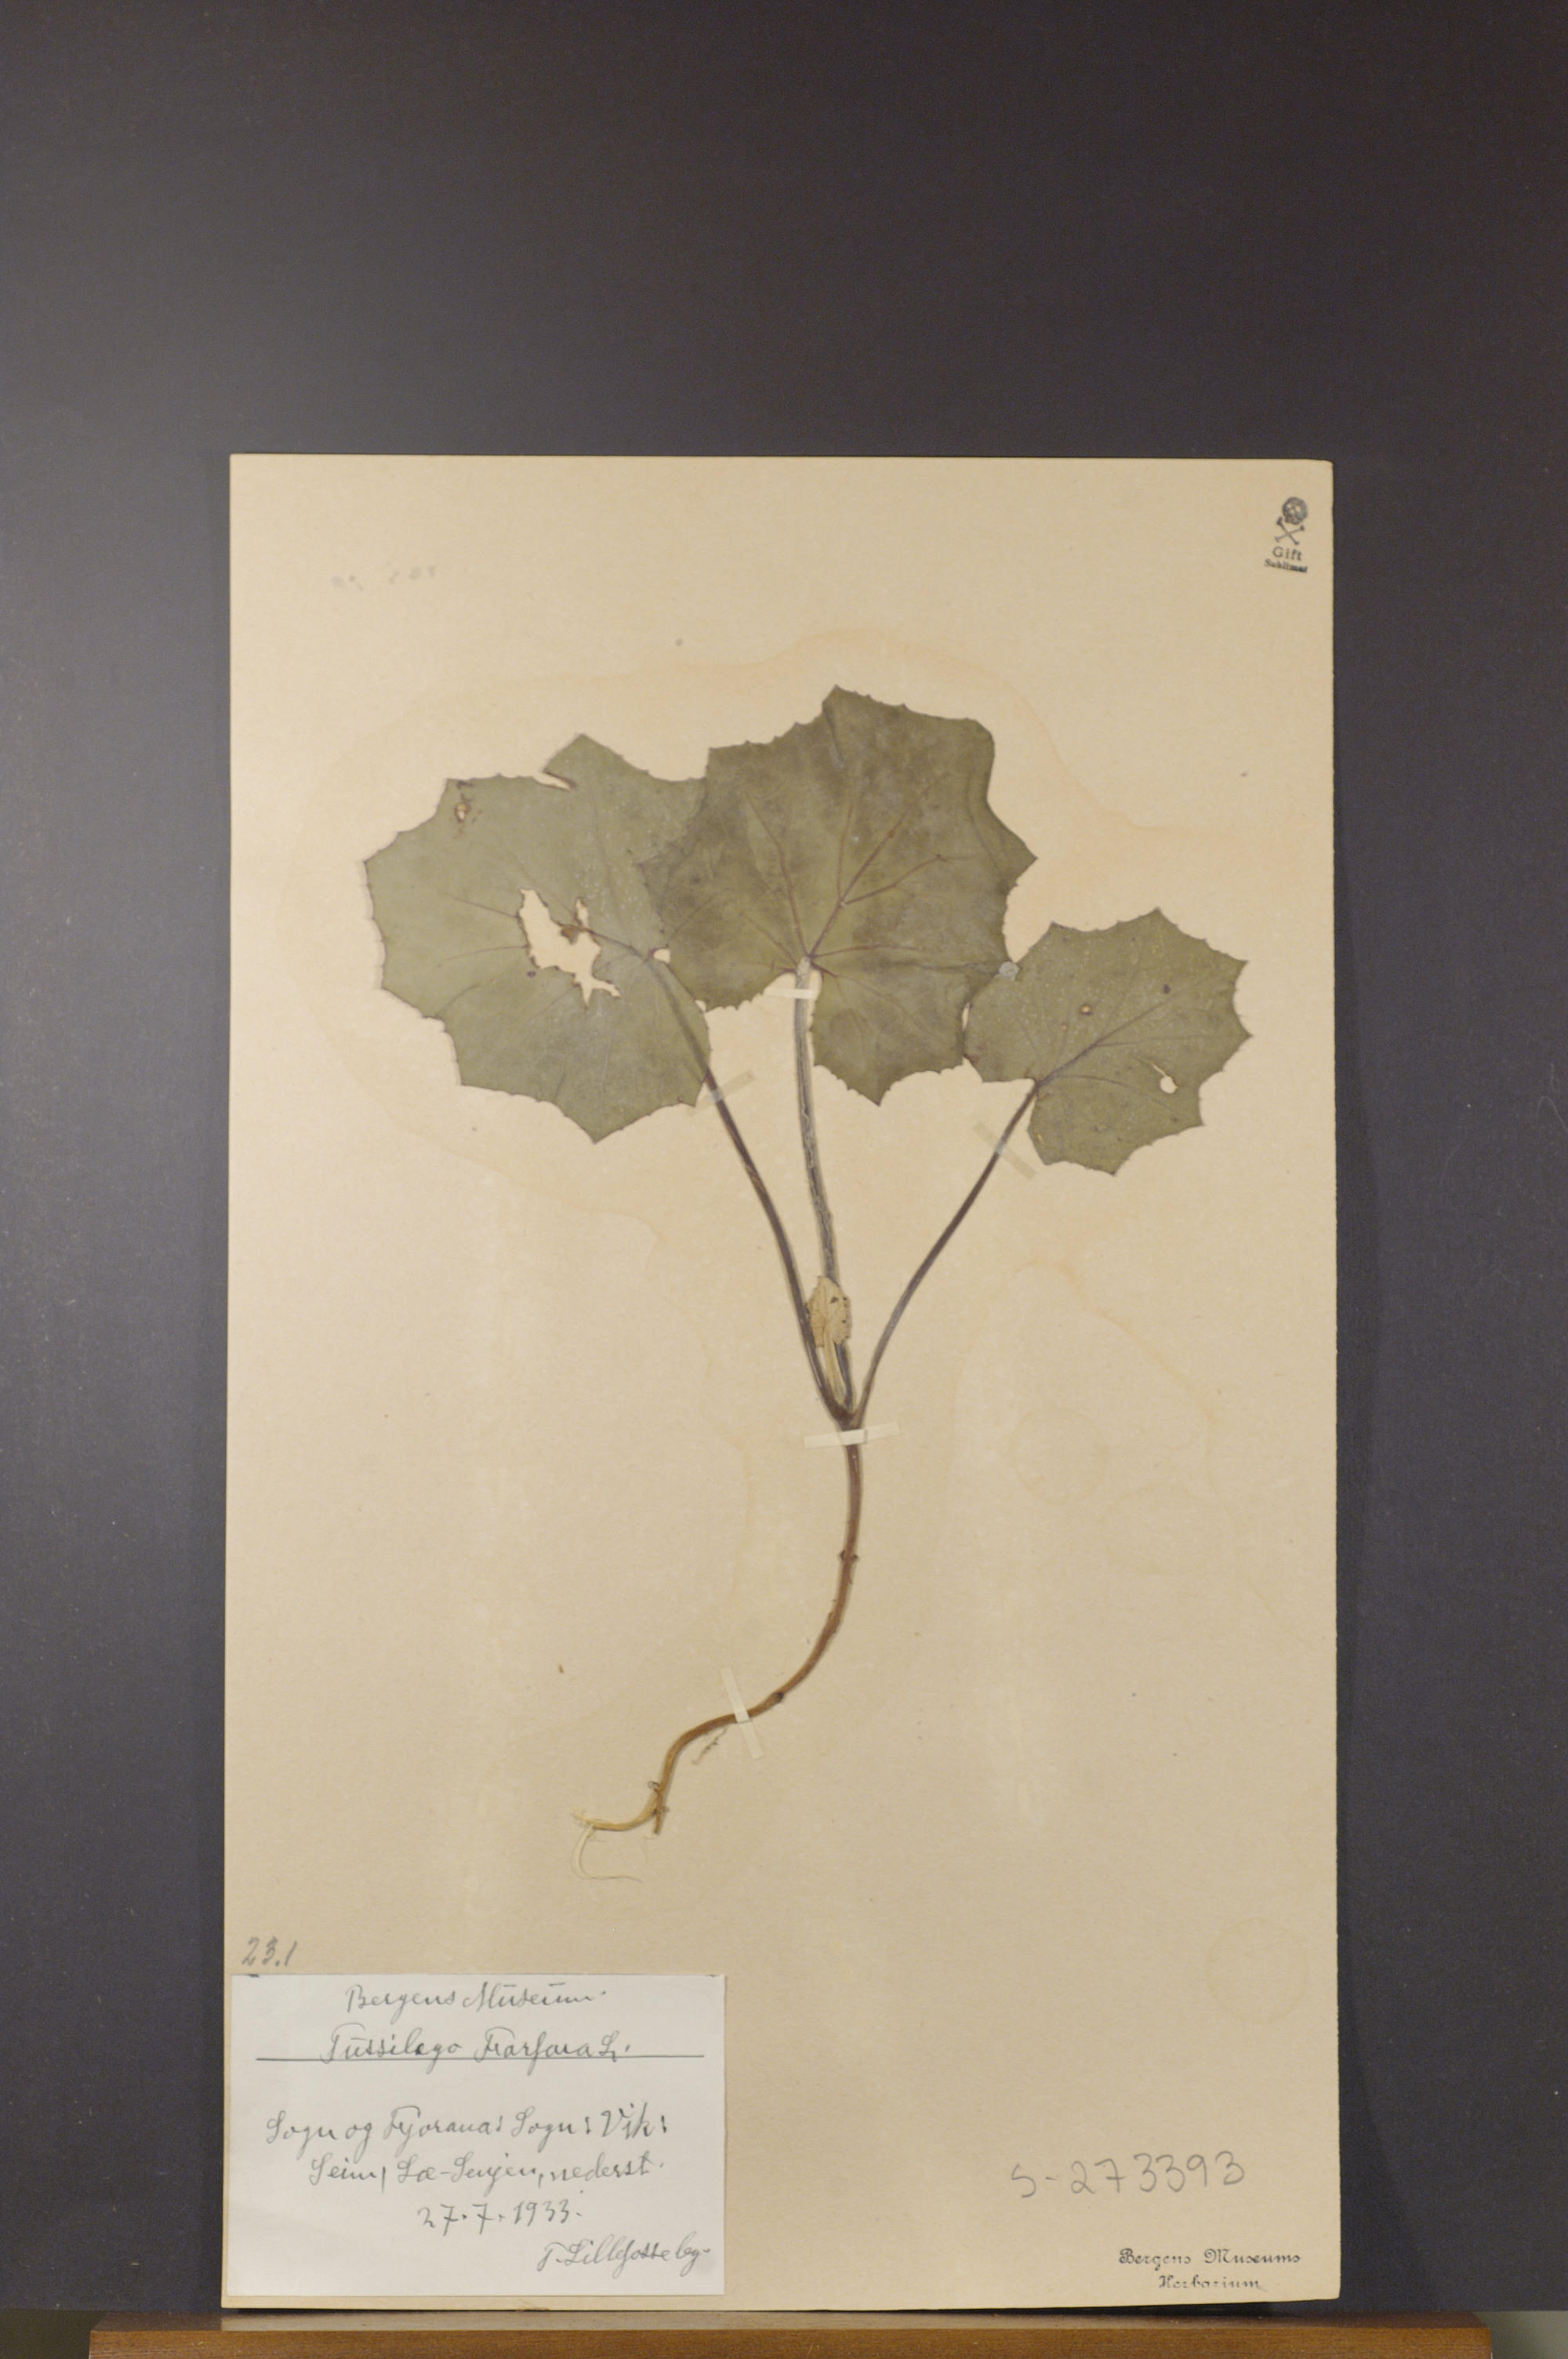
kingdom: Plantae
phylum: Tracheophyta
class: Magnoliopsida
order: Asterales
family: Asteraceae
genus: Tussilago
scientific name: Tussilago farfara
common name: Coltsfoot
